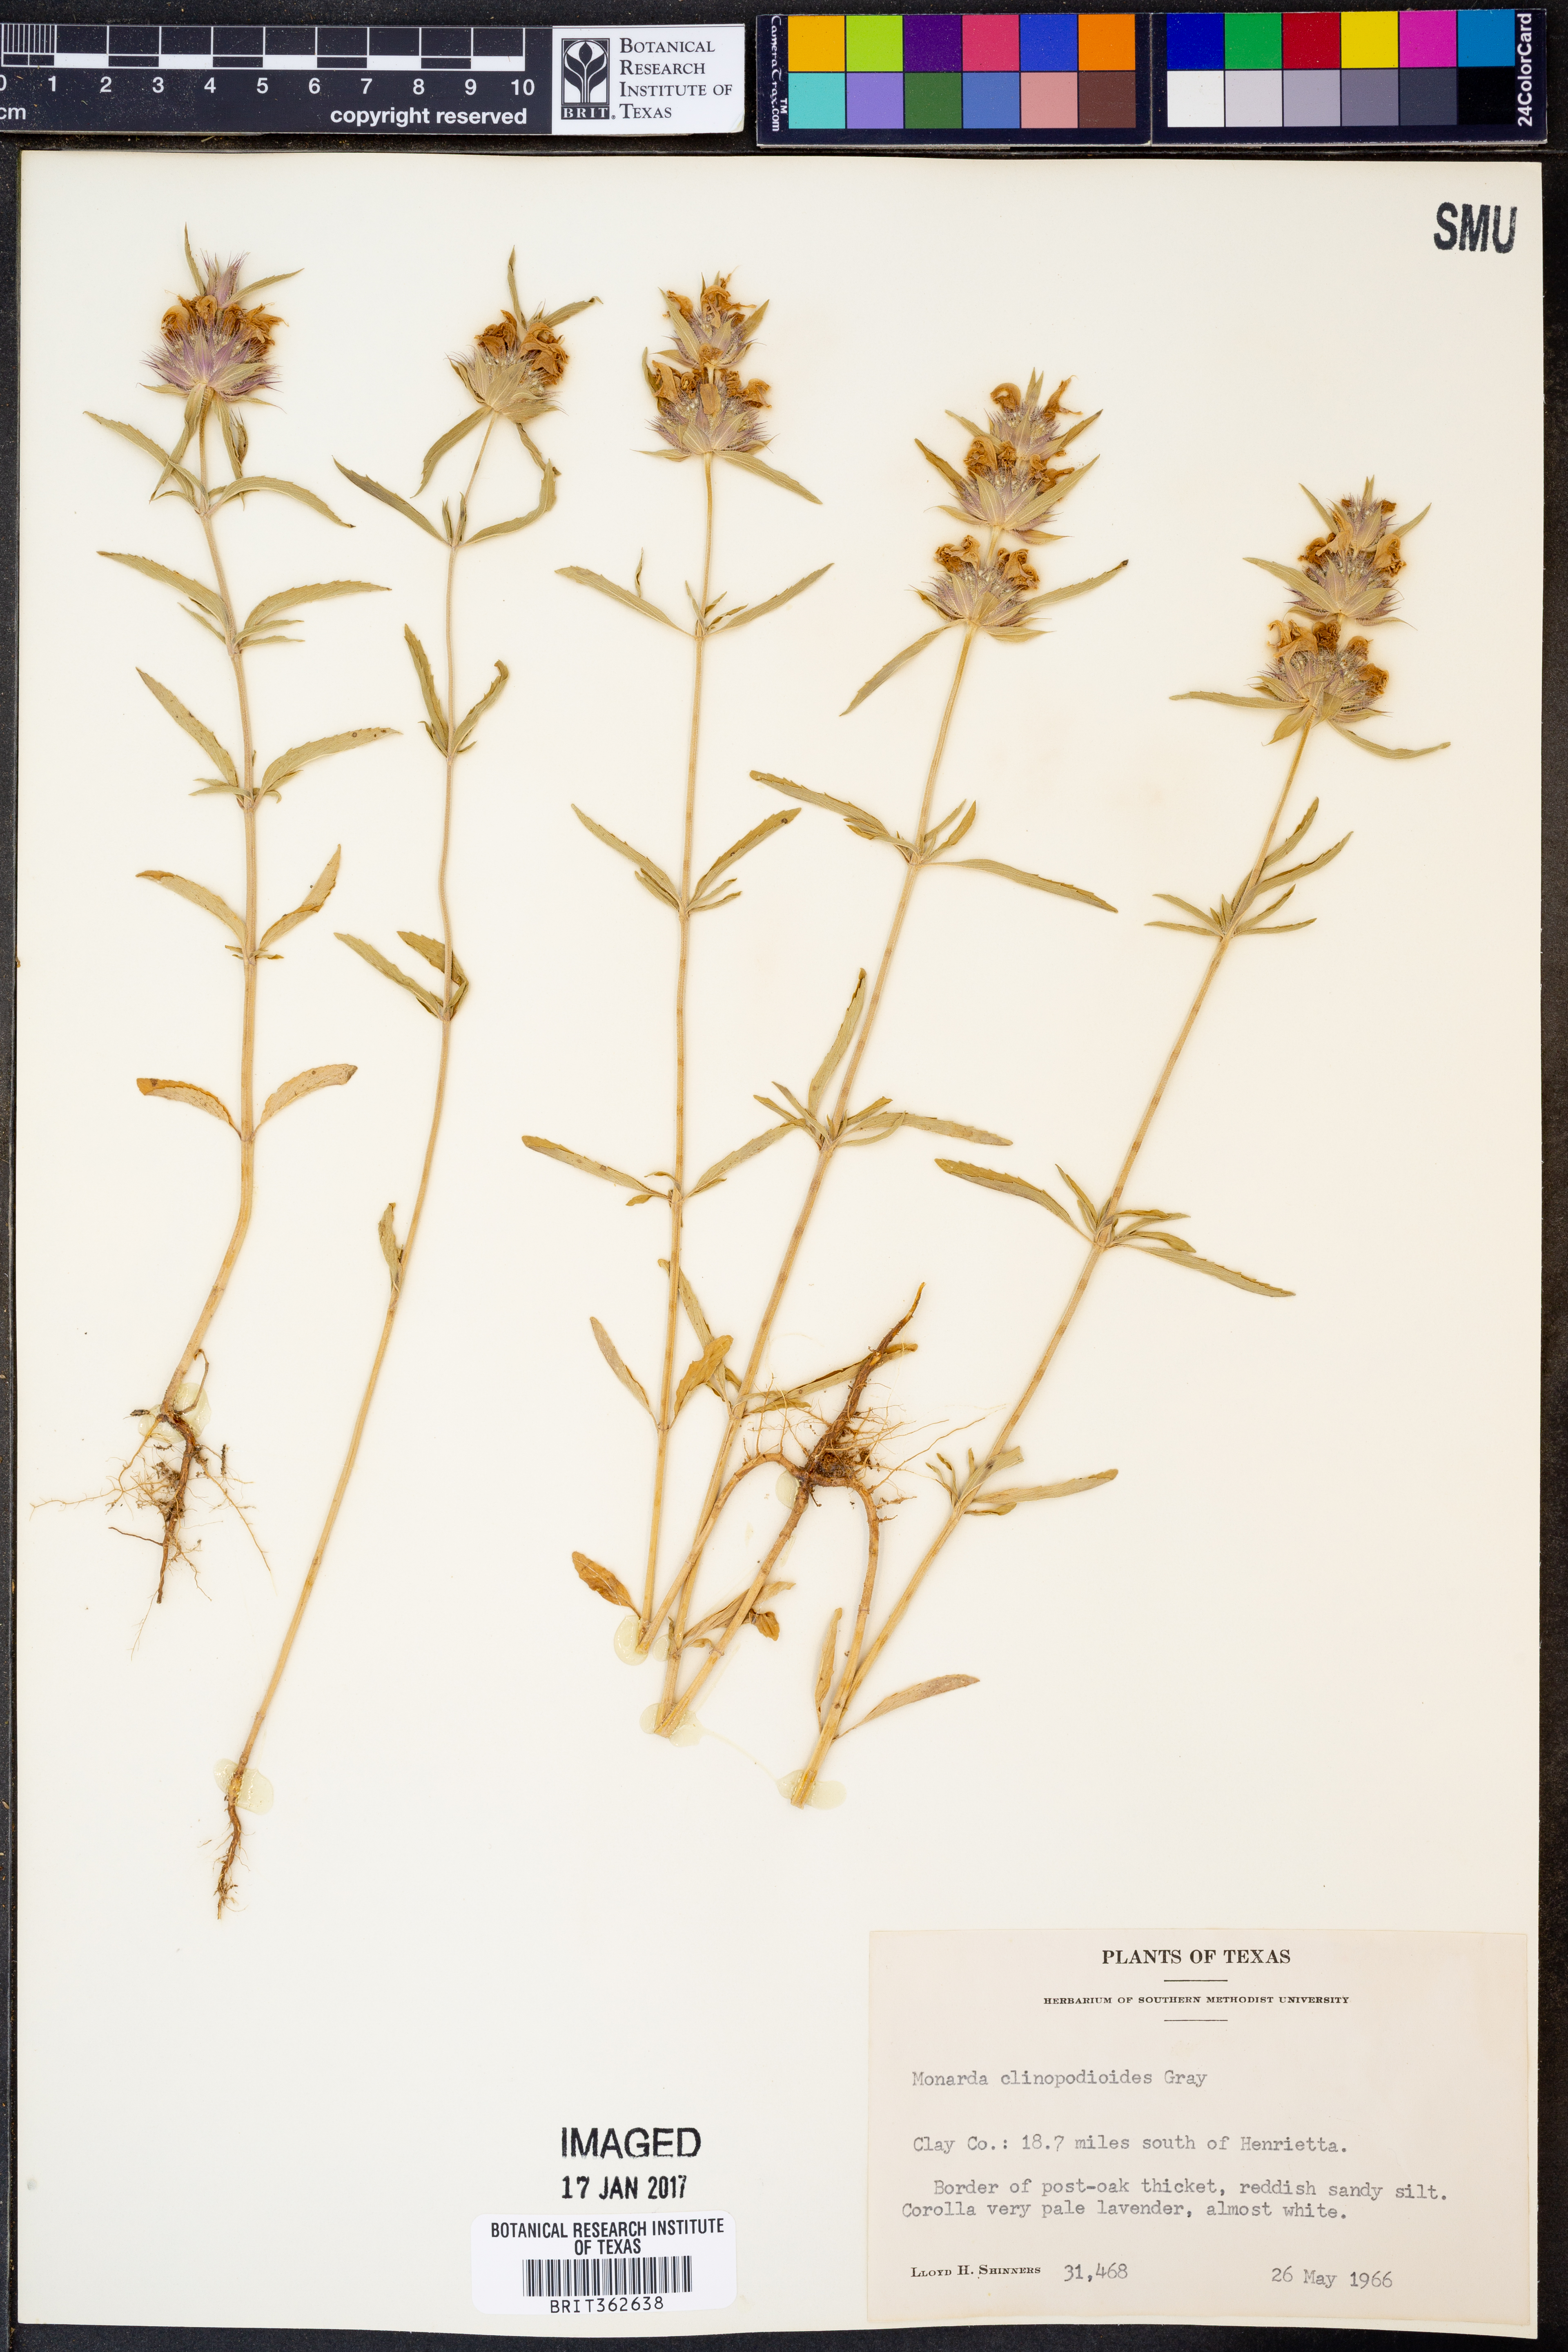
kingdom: Plantae
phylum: Tracheophyta
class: Magnoliopsida
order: Lamiales
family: Lamiaceae
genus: Monarda
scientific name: Monarda clinopodioides
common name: Basil beebalm
